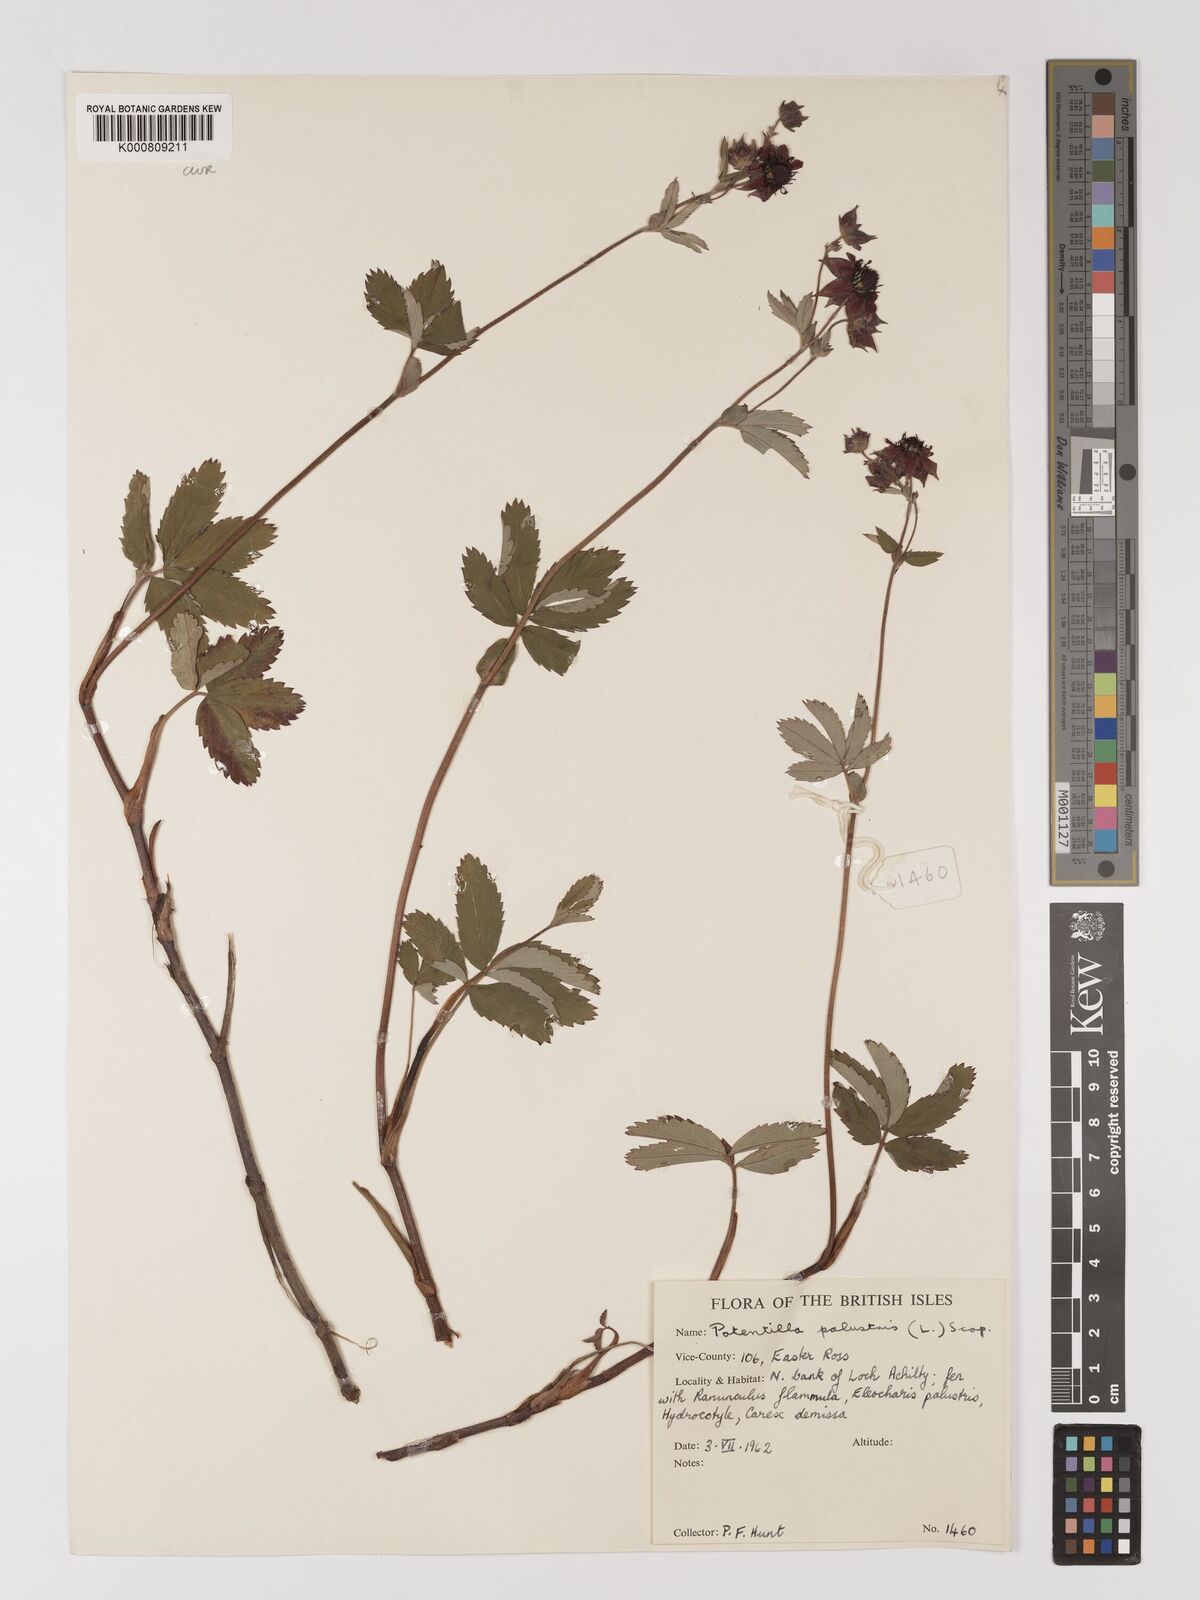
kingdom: Plantae
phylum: Tracheophyta
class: Magnoliopsida
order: Rosales
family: Rosaceae
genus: Comarum
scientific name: Comarum palustre
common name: Marsh cinquefoil
